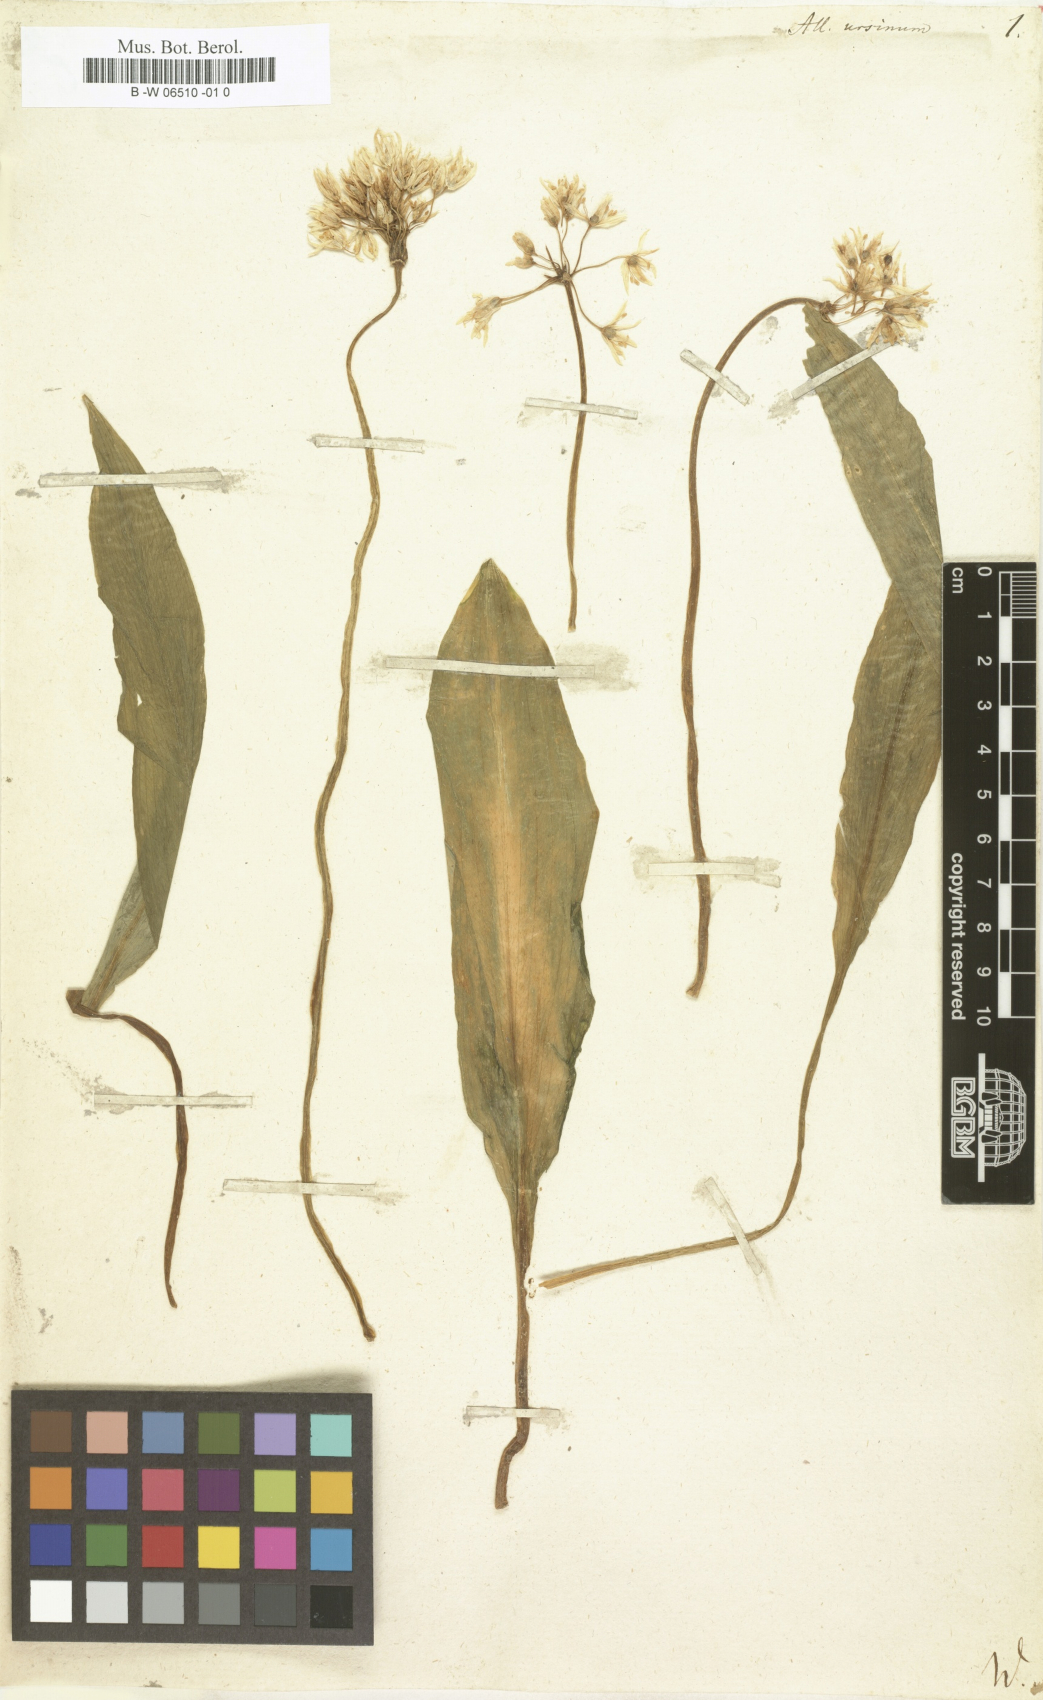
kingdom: Plantae
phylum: Tracheophyta
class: Liliopsida
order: Asparagales
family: Amaryllidaceae
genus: Allium
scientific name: Allium ursinum
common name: Ramsons
